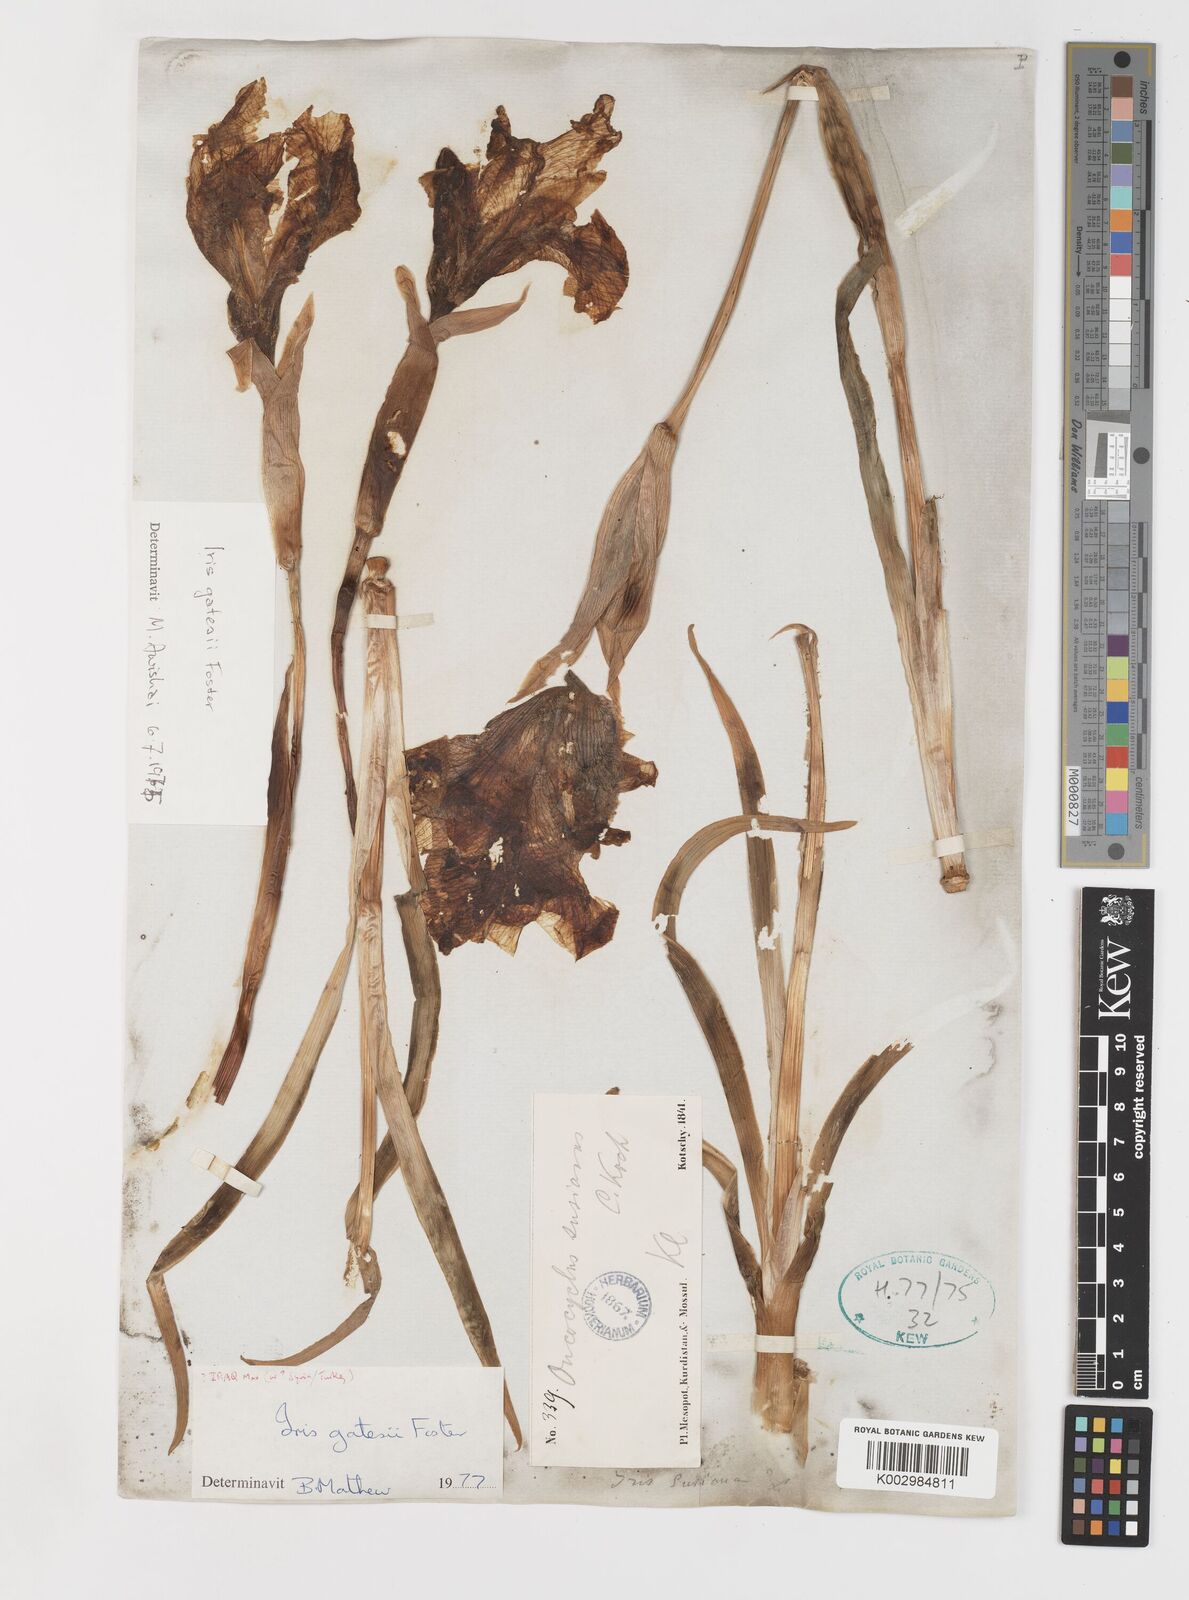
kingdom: Plantae
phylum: Tracheophyta
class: Liliopsida
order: Asparagales
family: Iridaceae
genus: Iris
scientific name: Iris gatesii
